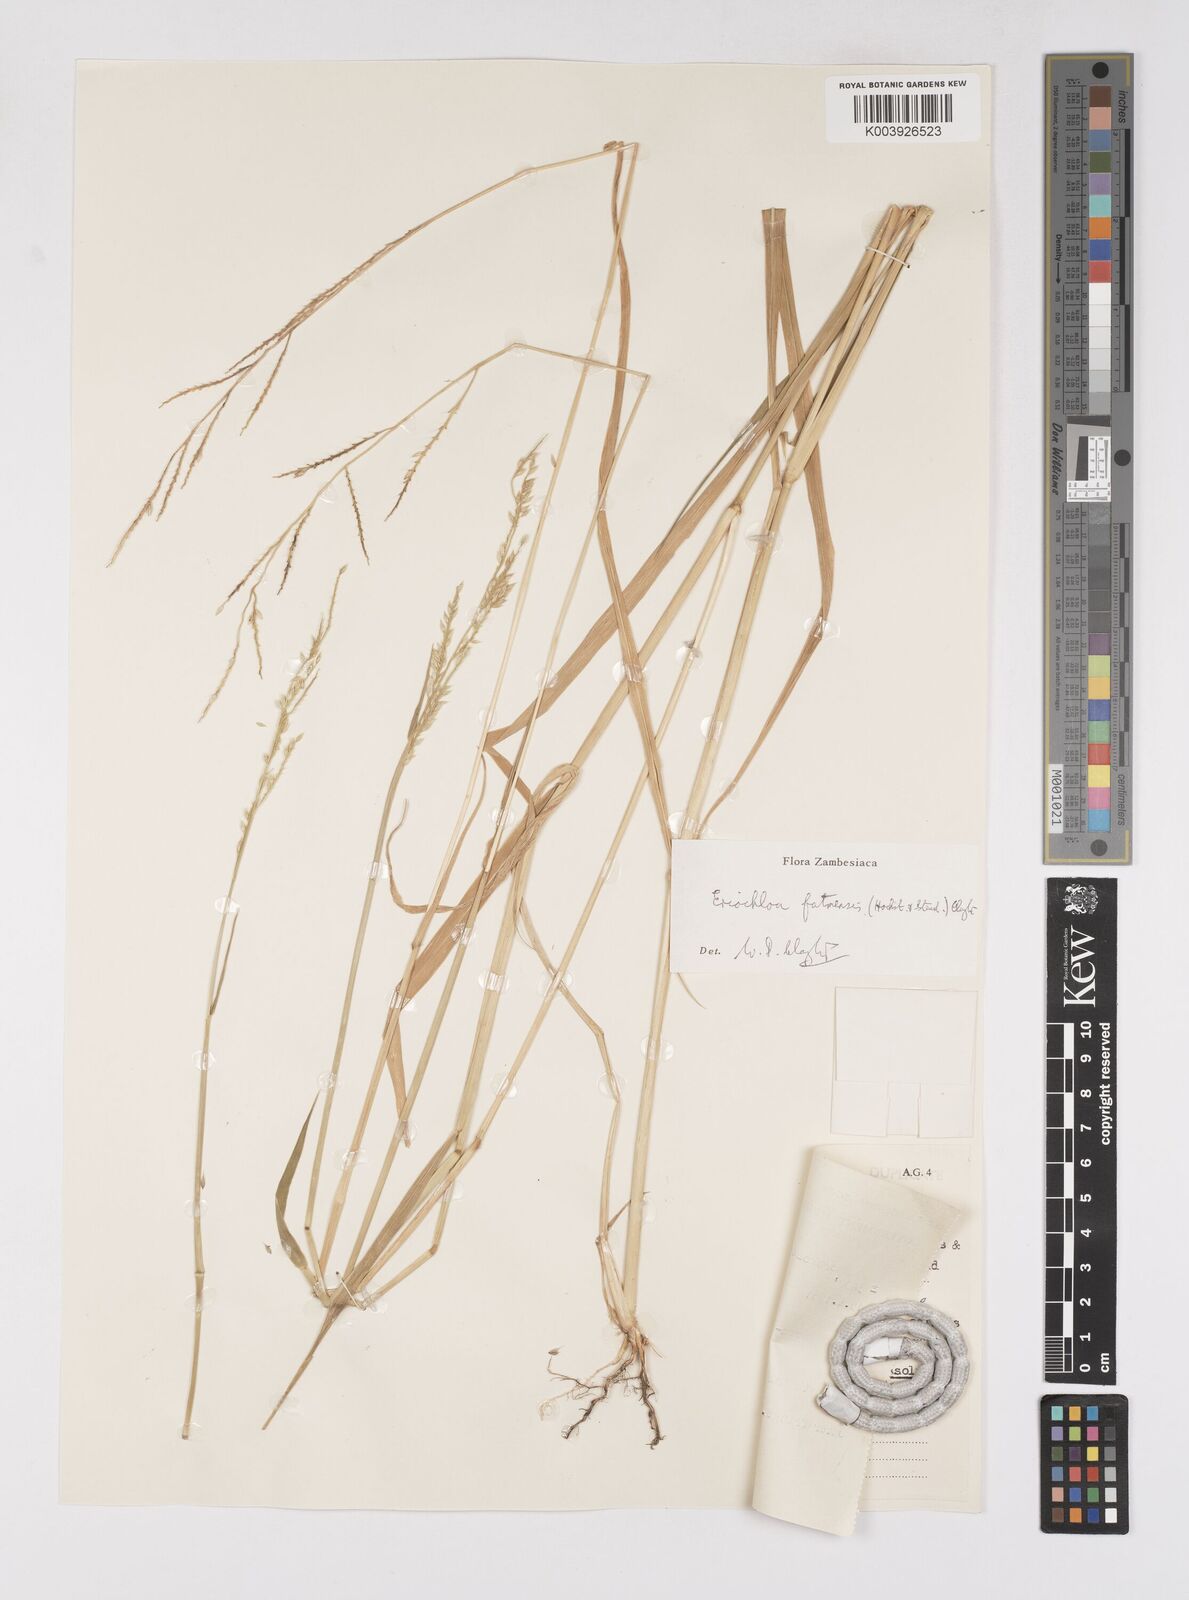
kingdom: Plantae
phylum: Tracheophyta
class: Liliopsida
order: Poales
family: Poaceae
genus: Eriochloa
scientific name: Eriochloa barbatus
